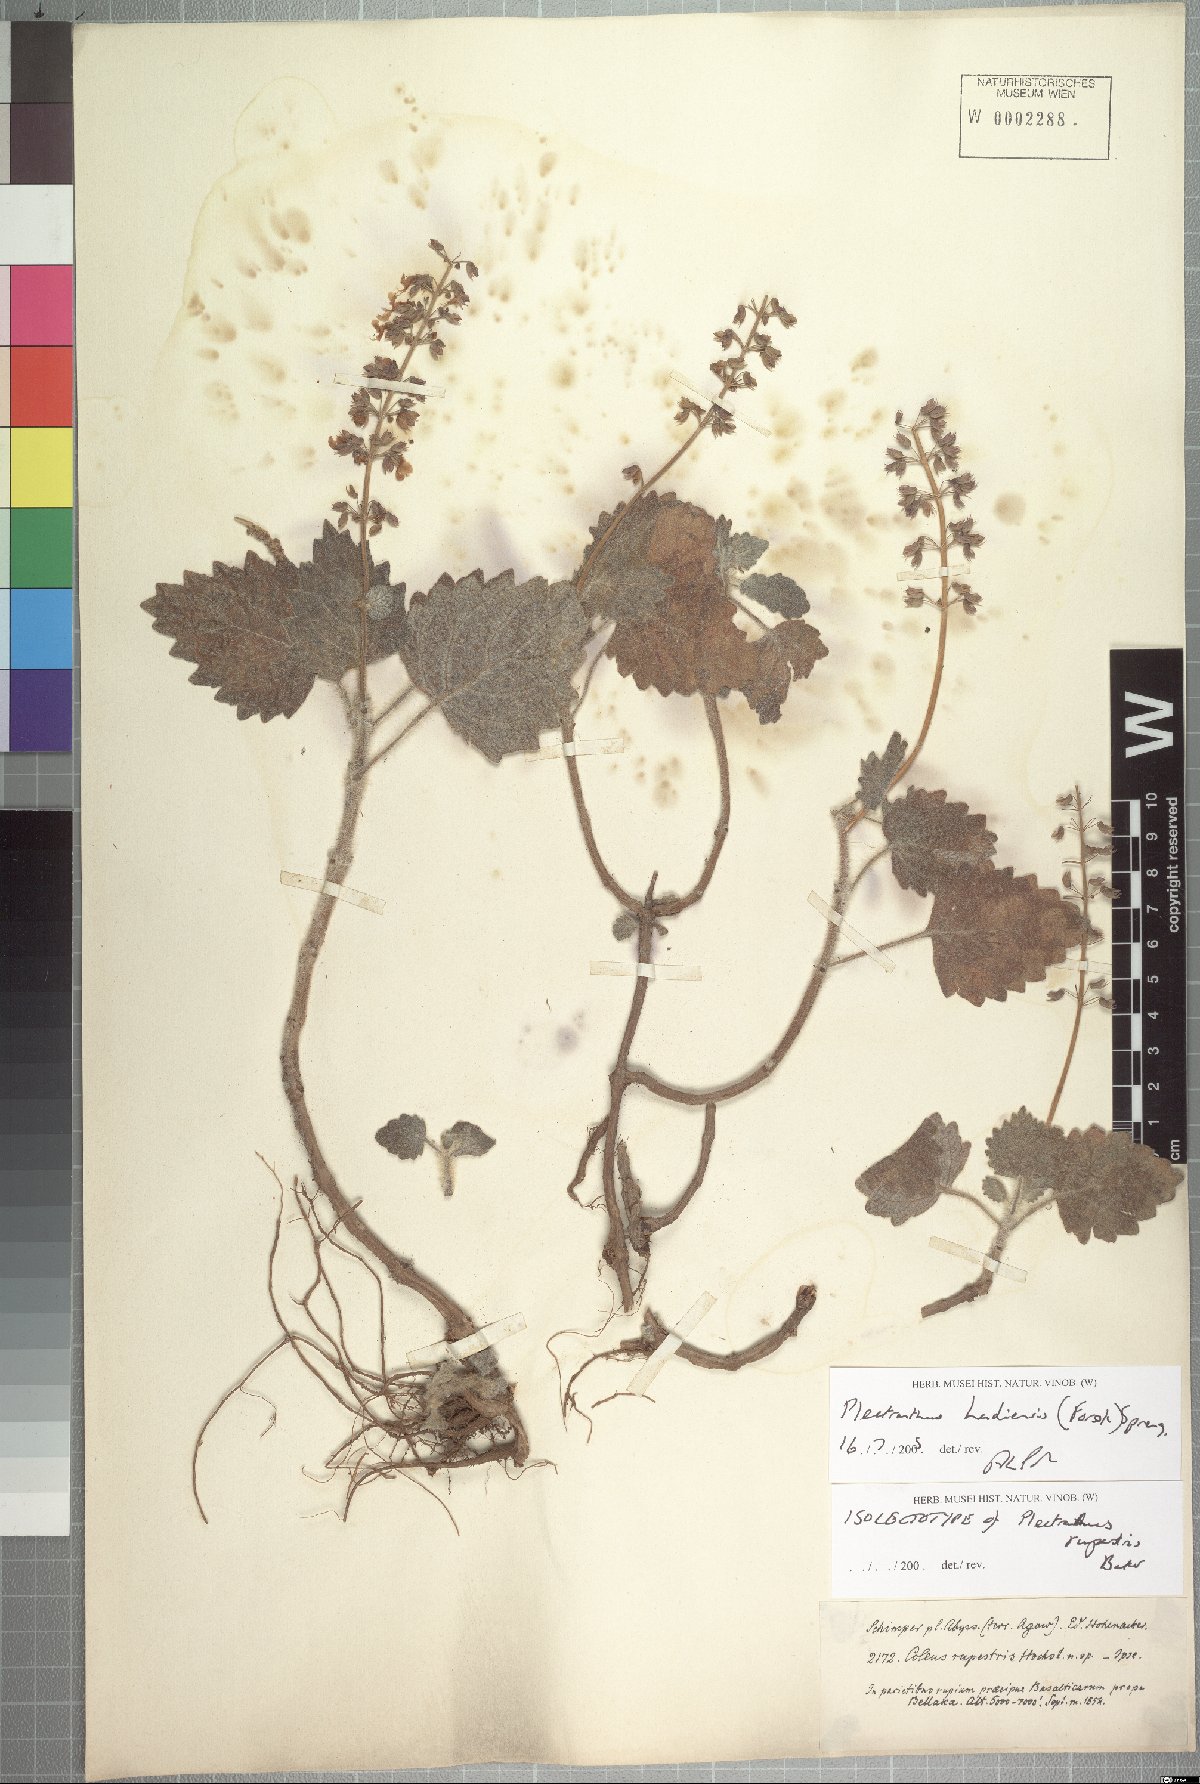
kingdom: Plantae
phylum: Tracheophyta
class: Magnoliopsida
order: Lamiales
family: Lamiaceae
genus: Coleus
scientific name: Coleus hadiensis
